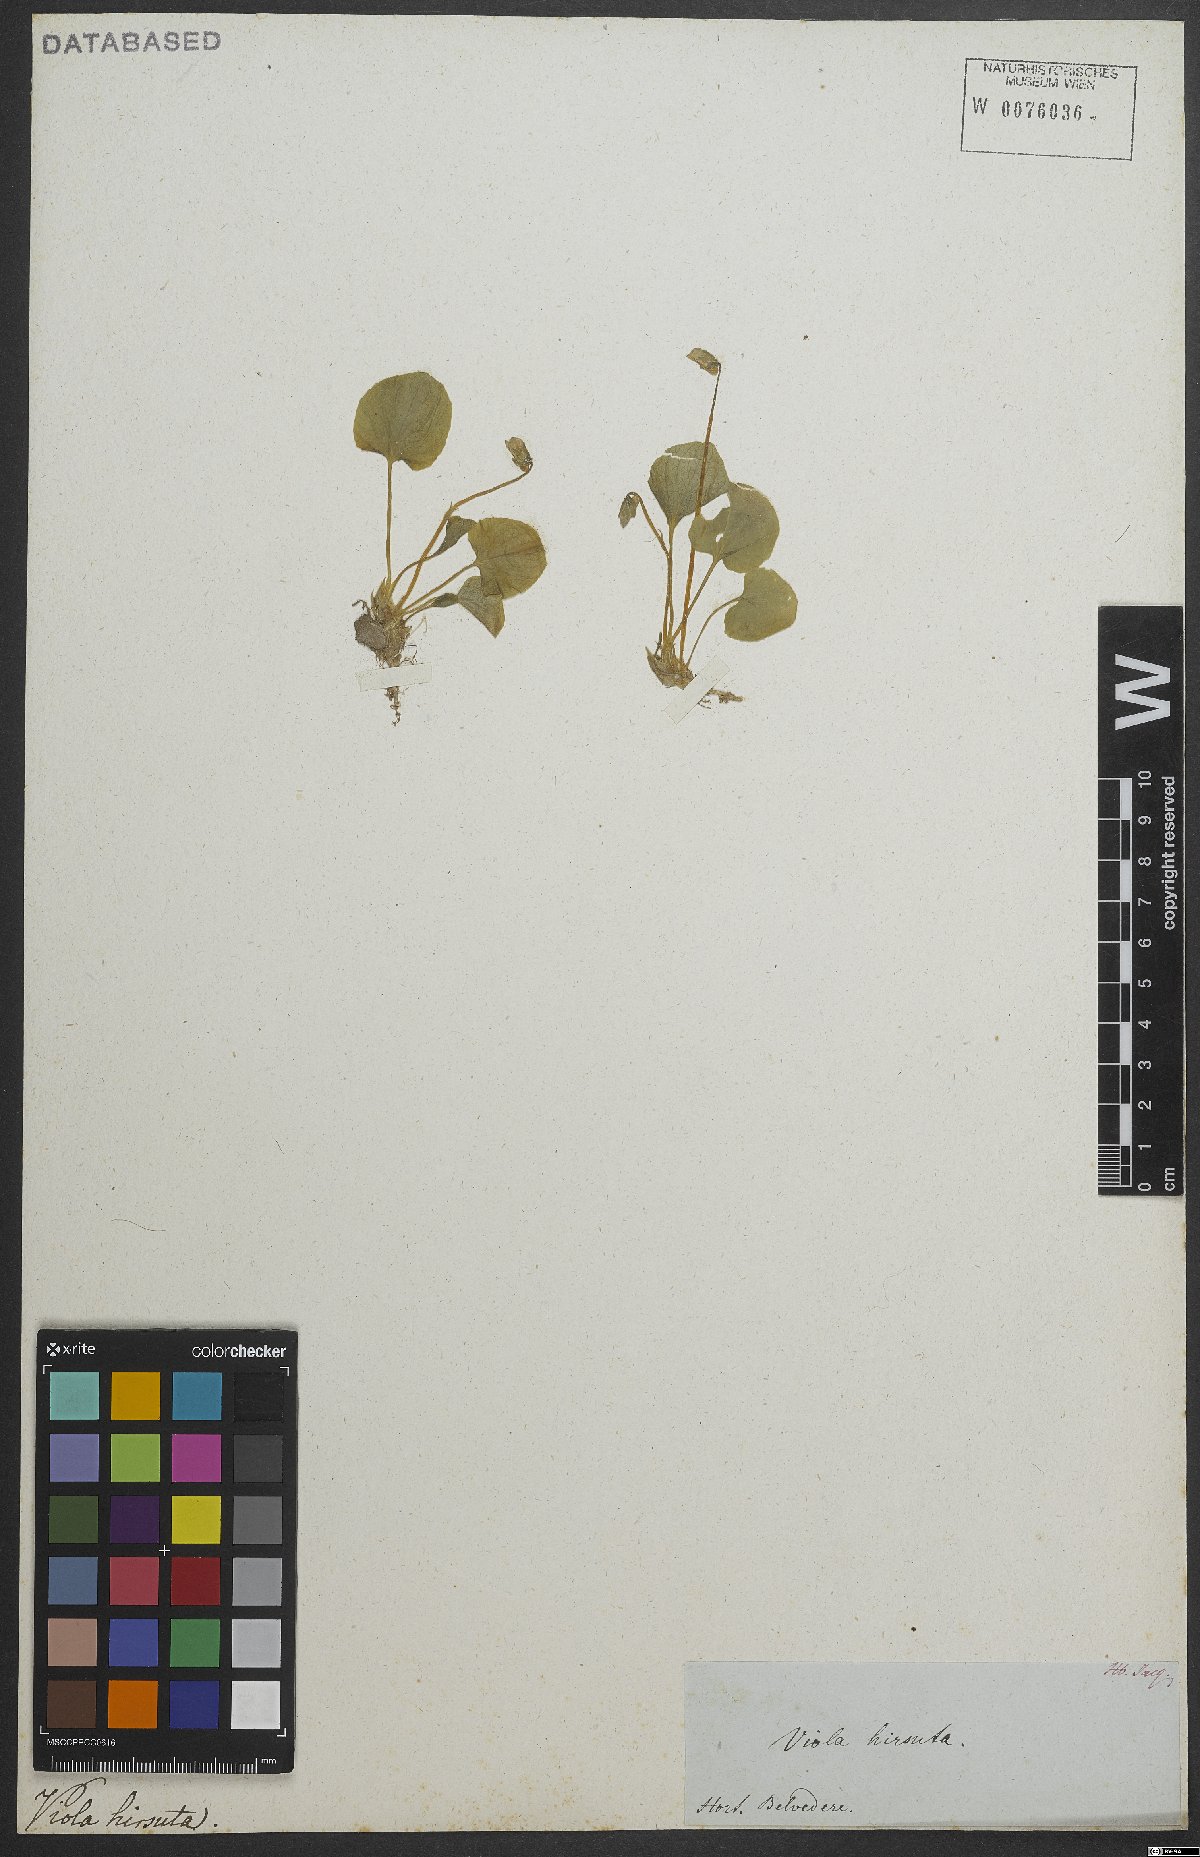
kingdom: Plantae
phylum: Tracheophyta
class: Magnoliopsida
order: Malpighiales
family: Violaceae
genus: Viola
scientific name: Viola hirta
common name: Hairy violet
